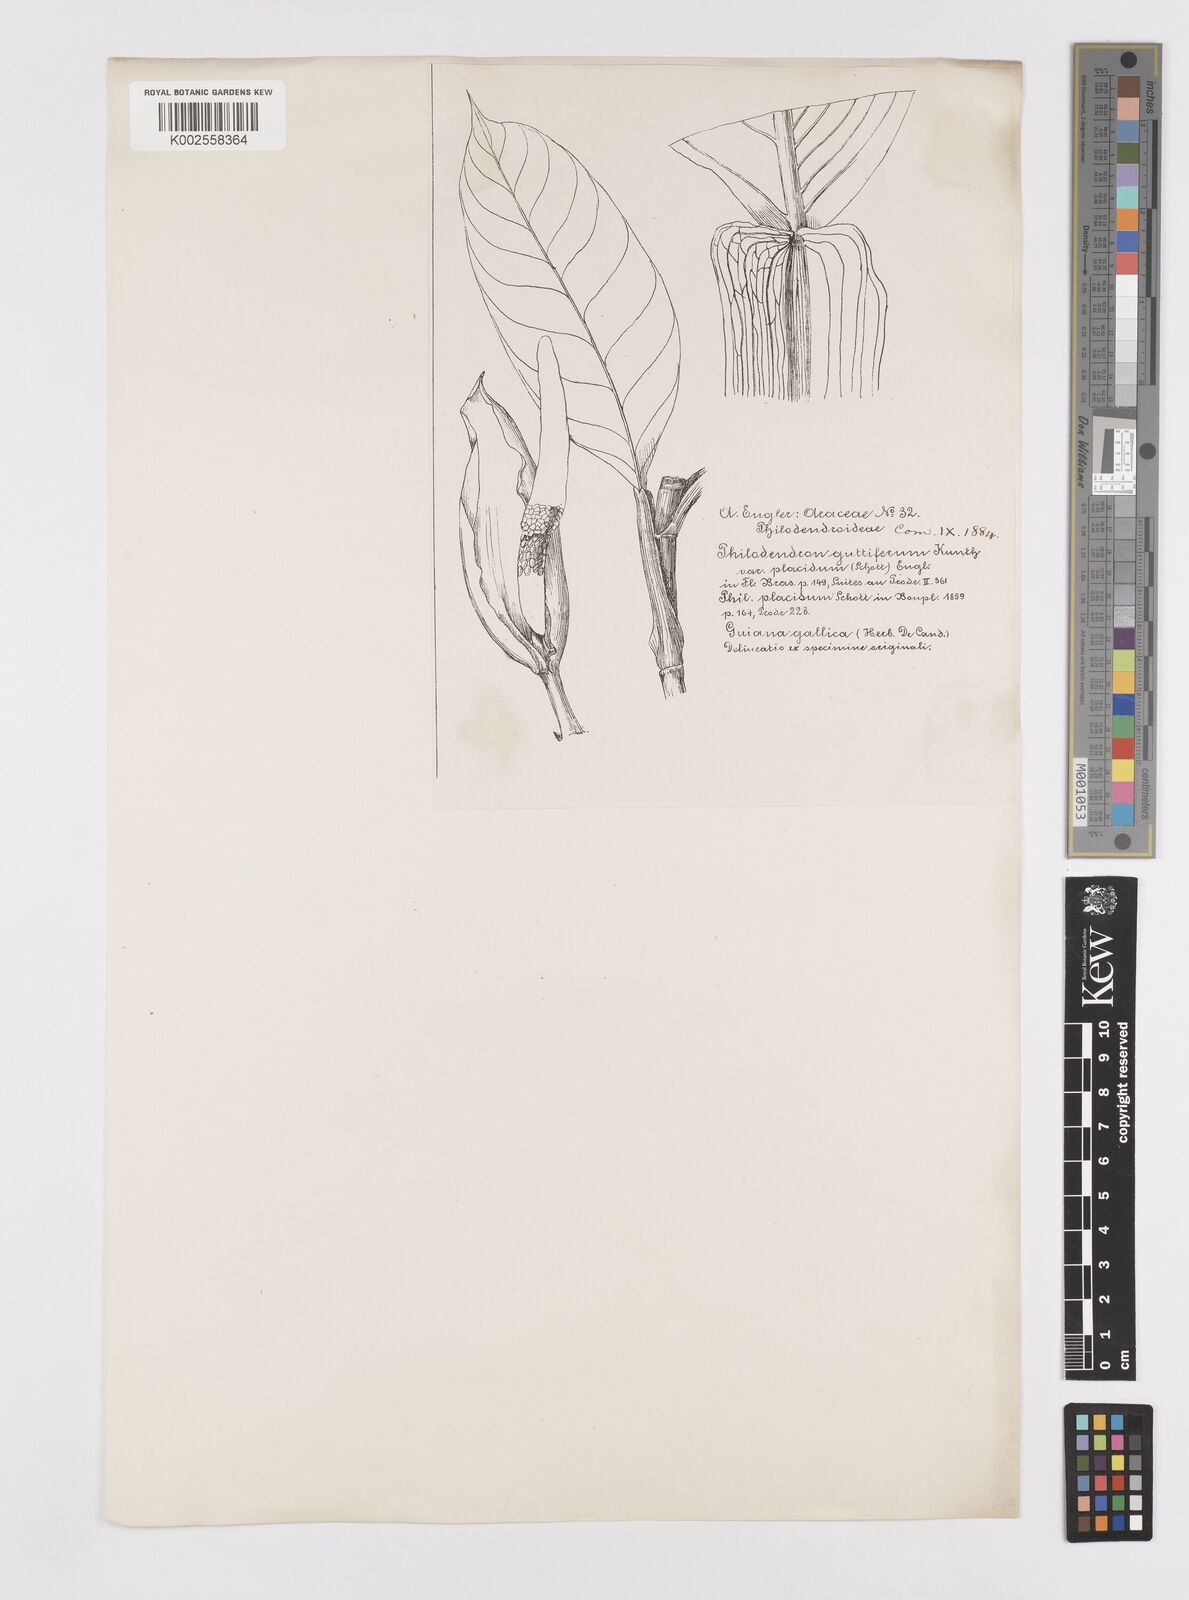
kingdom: Plantae
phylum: Tracheophyta
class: Liliopsida
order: Alismatales
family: Araceae
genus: Philodendron
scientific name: Philodendron placidum
